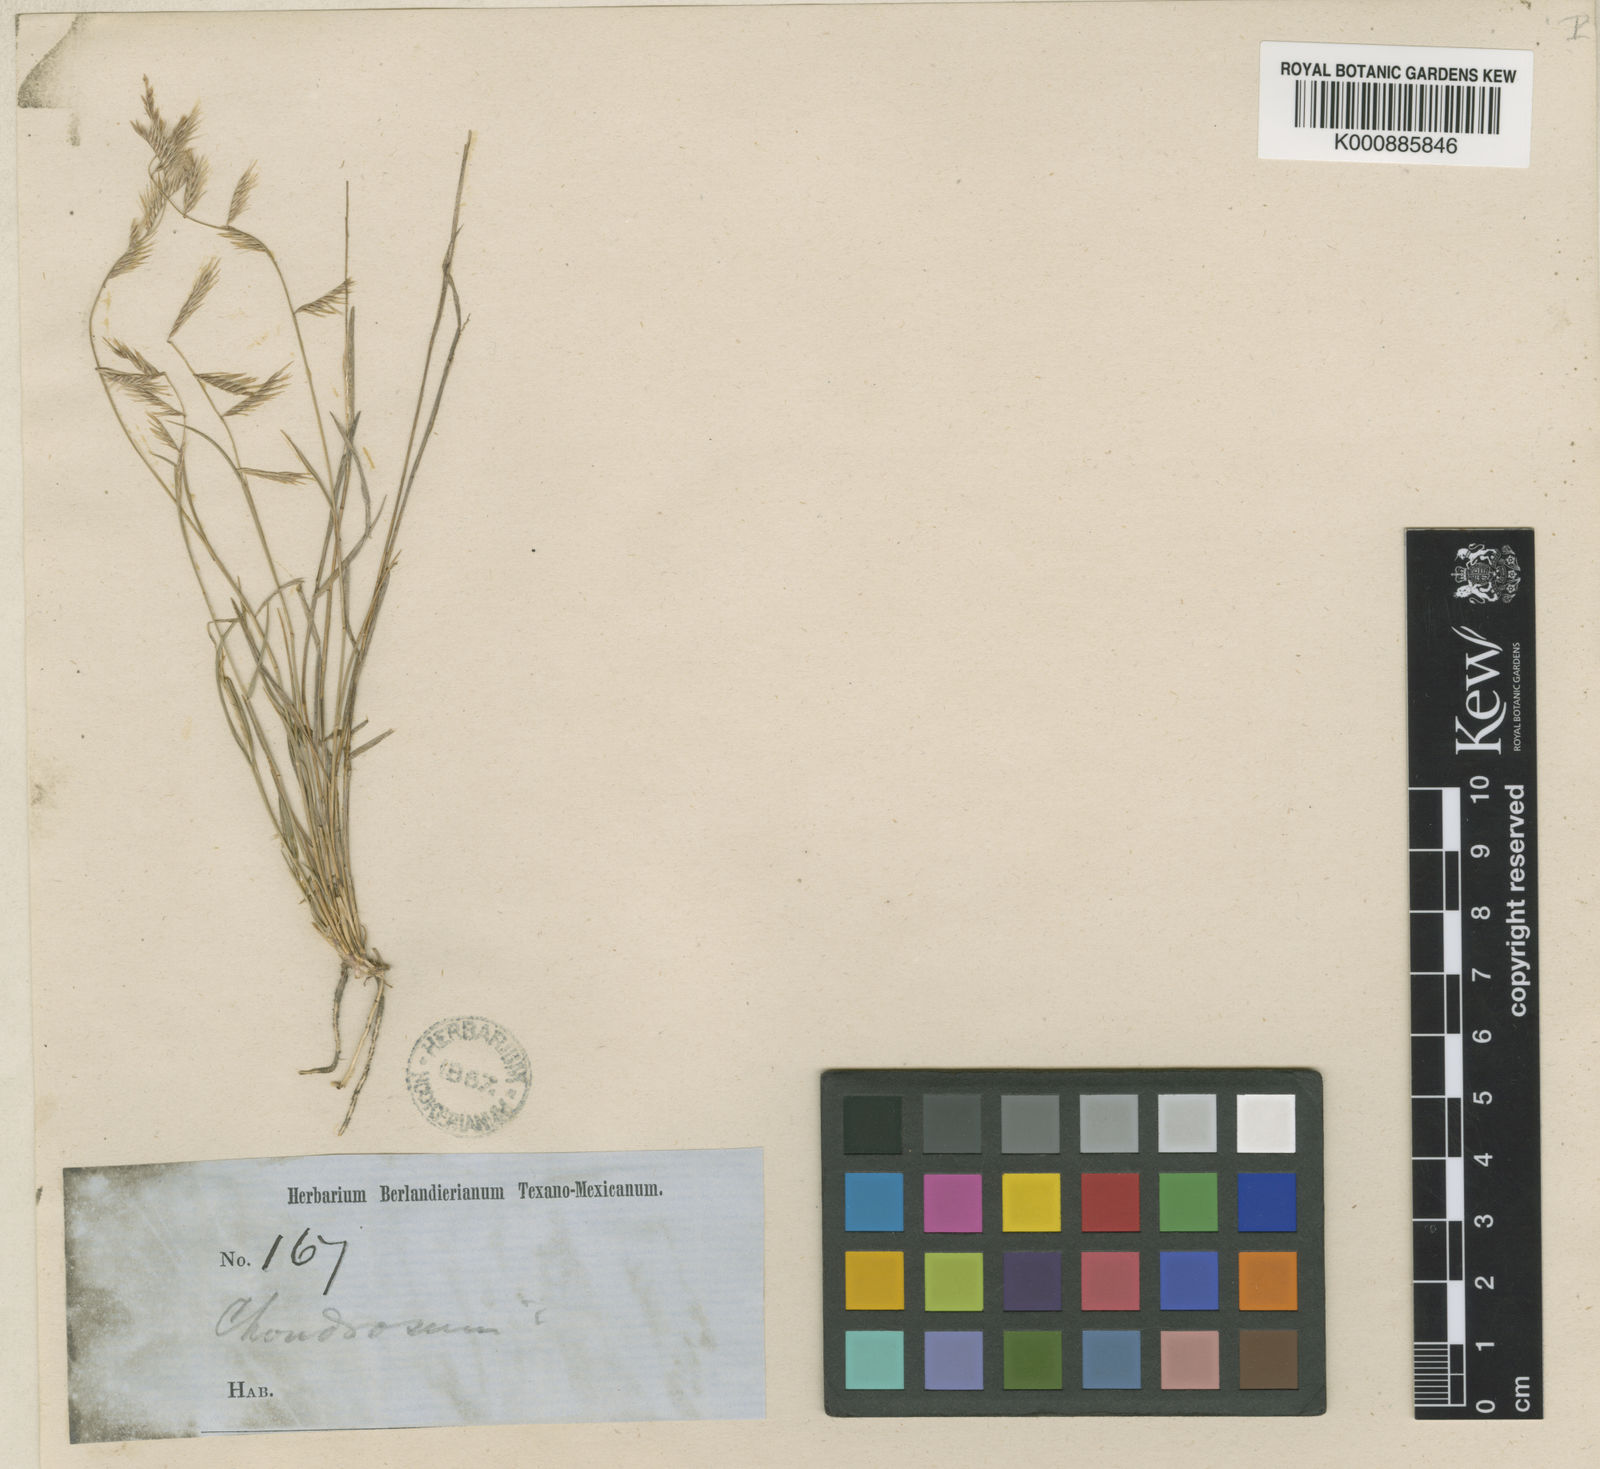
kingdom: Plantae
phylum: Tracheophyta
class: Liliopsida
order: Poales
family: Poaceae
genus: Bouteloua
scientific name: Bouteloua trifida
